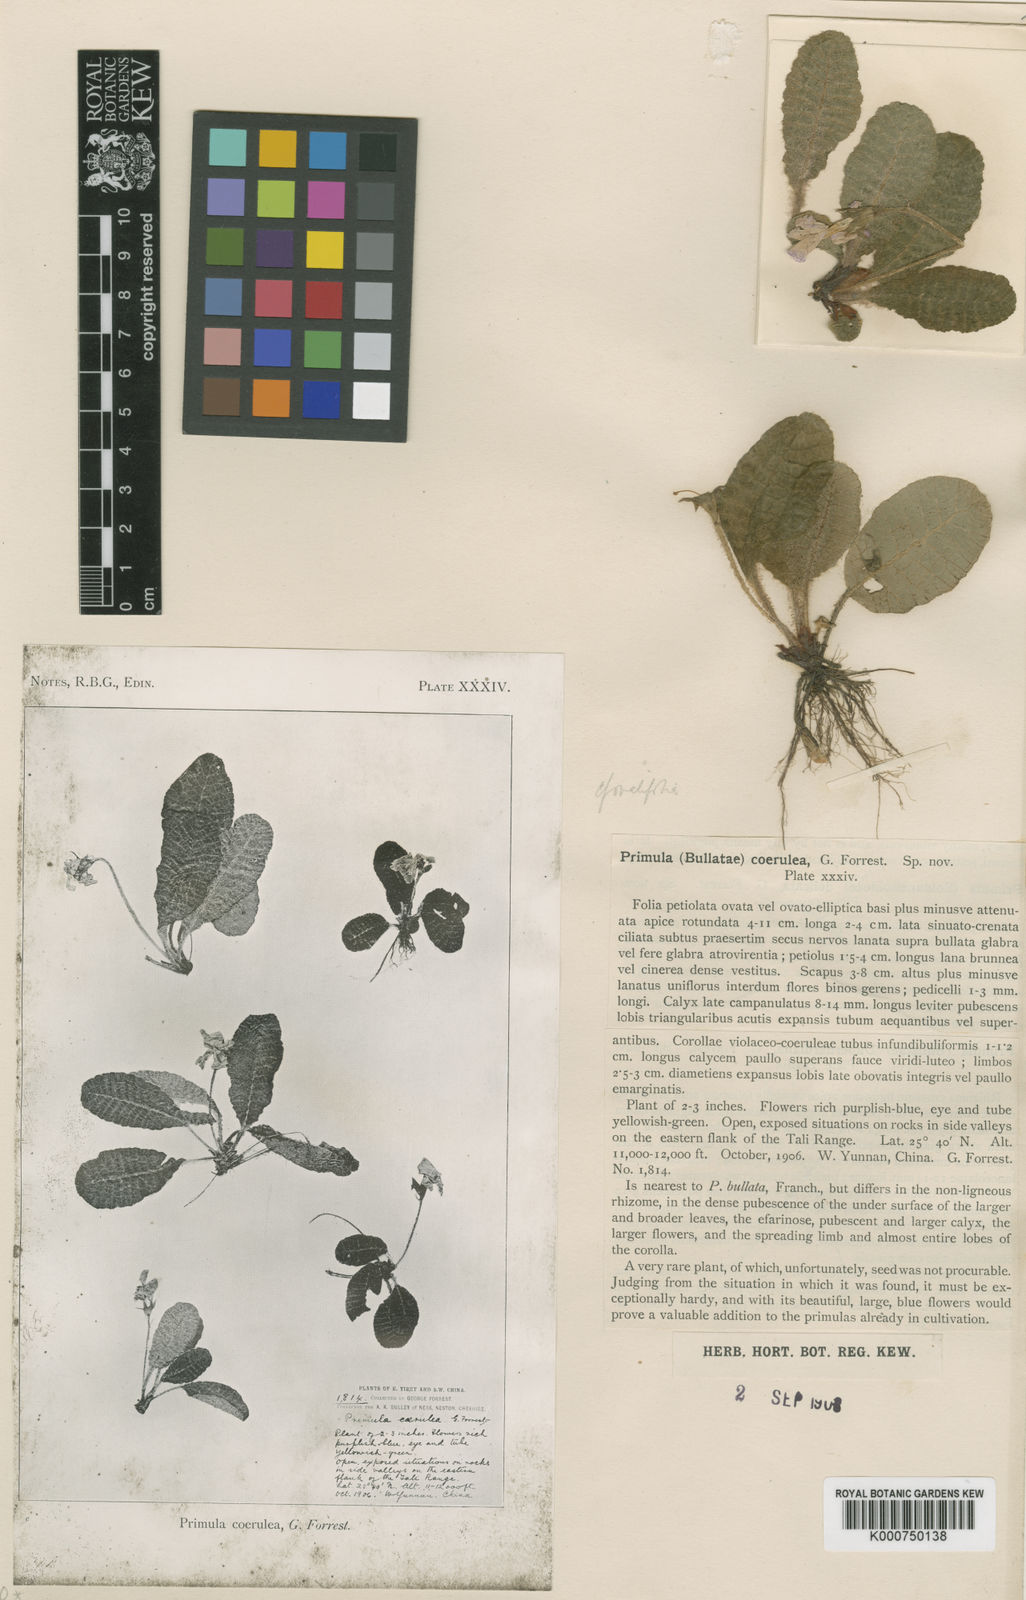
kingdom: Plantae
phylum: Tracheophyta
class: Magnoliopsida
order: Ericales
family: Primulaceae
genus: Primula
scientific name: Primula coerulea
